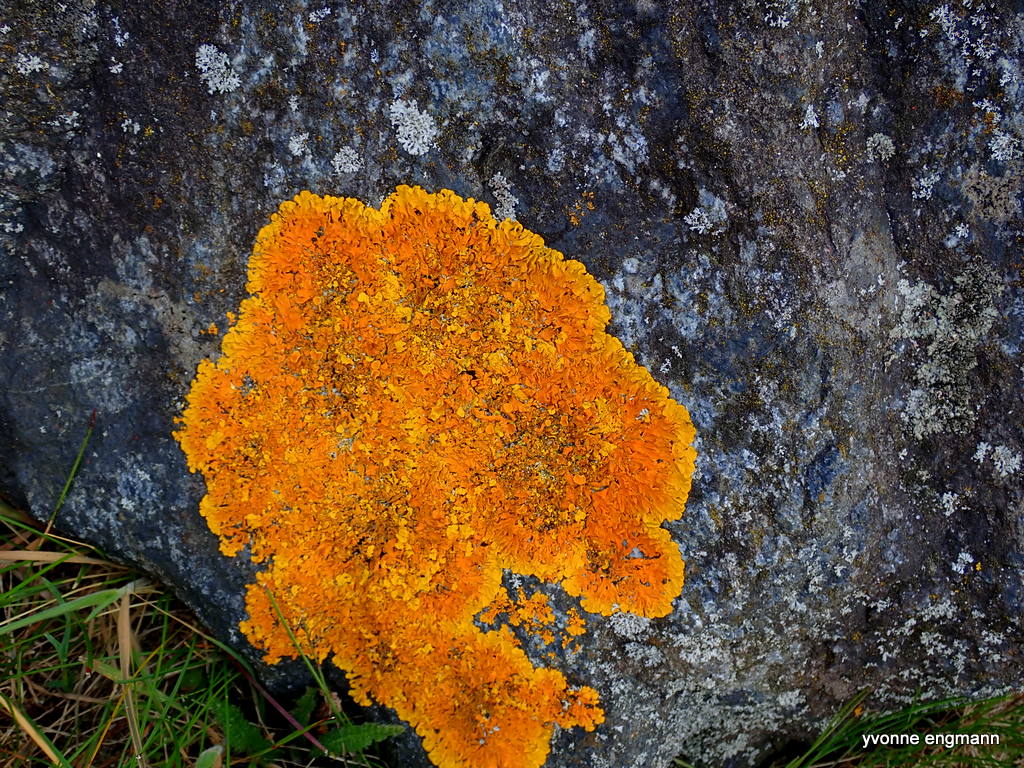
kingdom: Fungi
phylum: Ascomycota
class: Lecanoromycetes
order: Teloschistales
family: Teloschistaceae
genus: Xanthoria
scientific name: Xanthoria parietina
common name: almindelig væggelav
